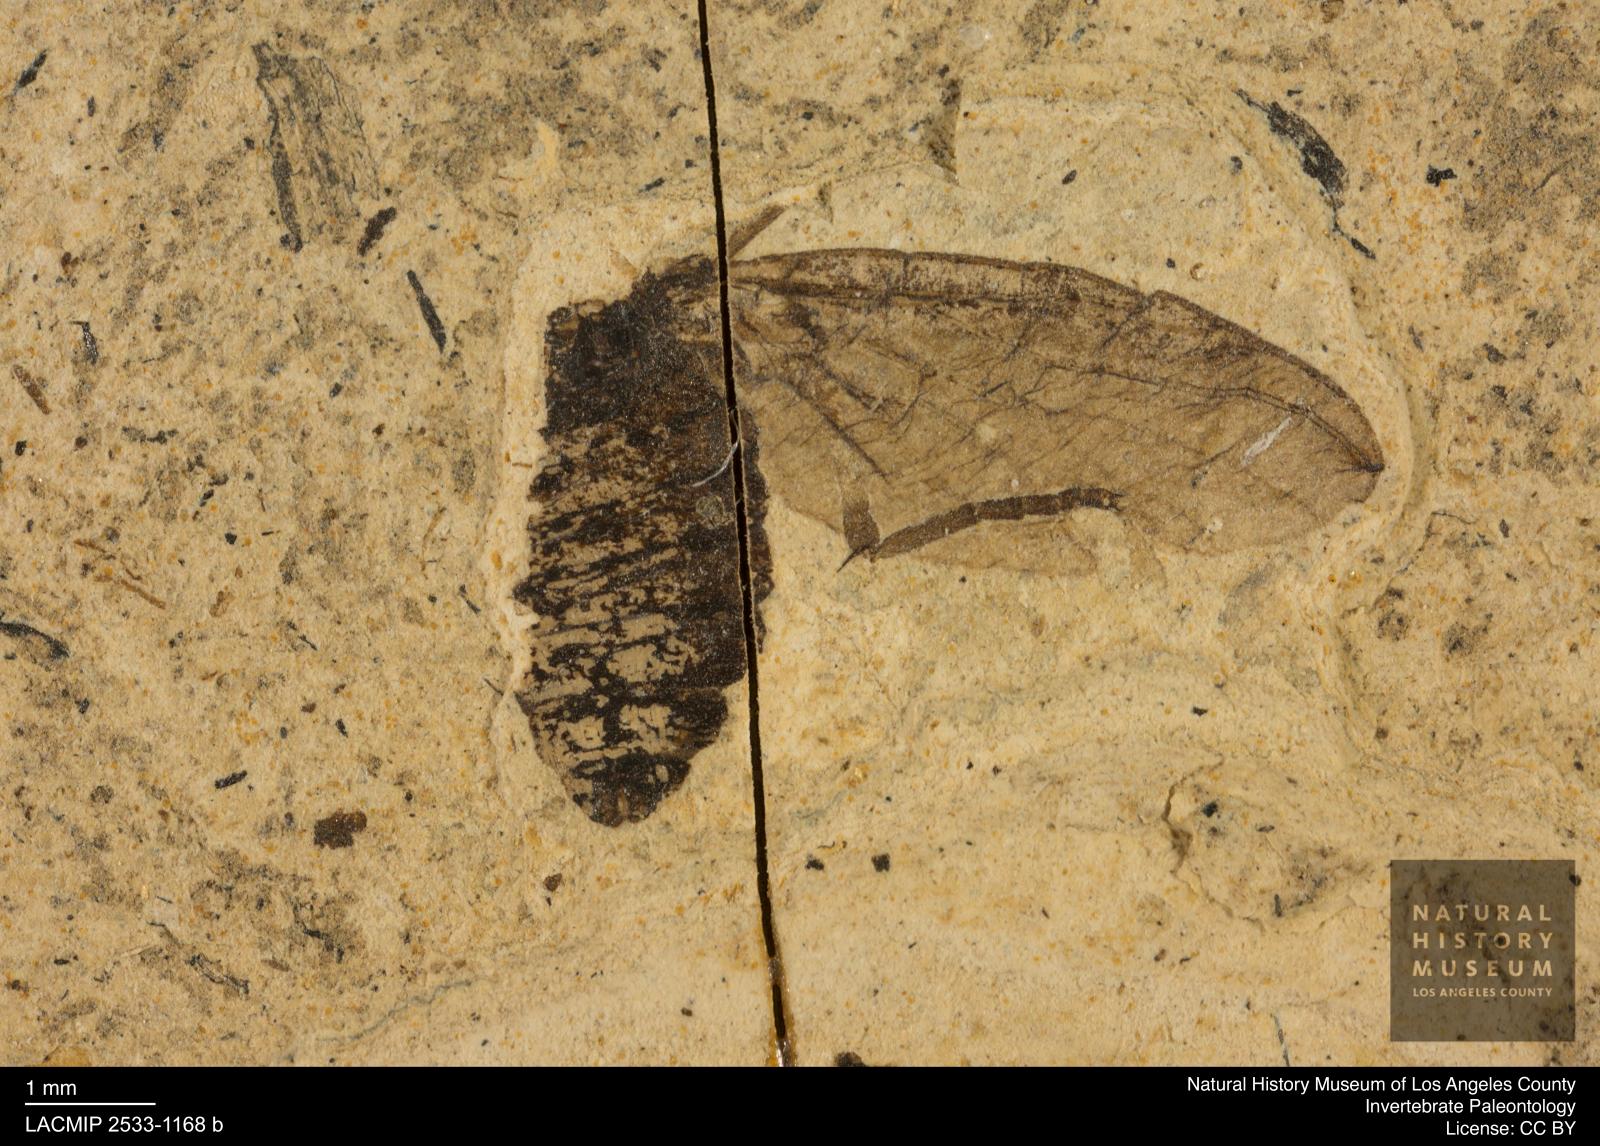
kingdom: Animalia
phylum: Arthropoda
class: Insecta
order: Diptera
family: Bibionidae
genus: Plecia
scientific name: Plecia stygia
